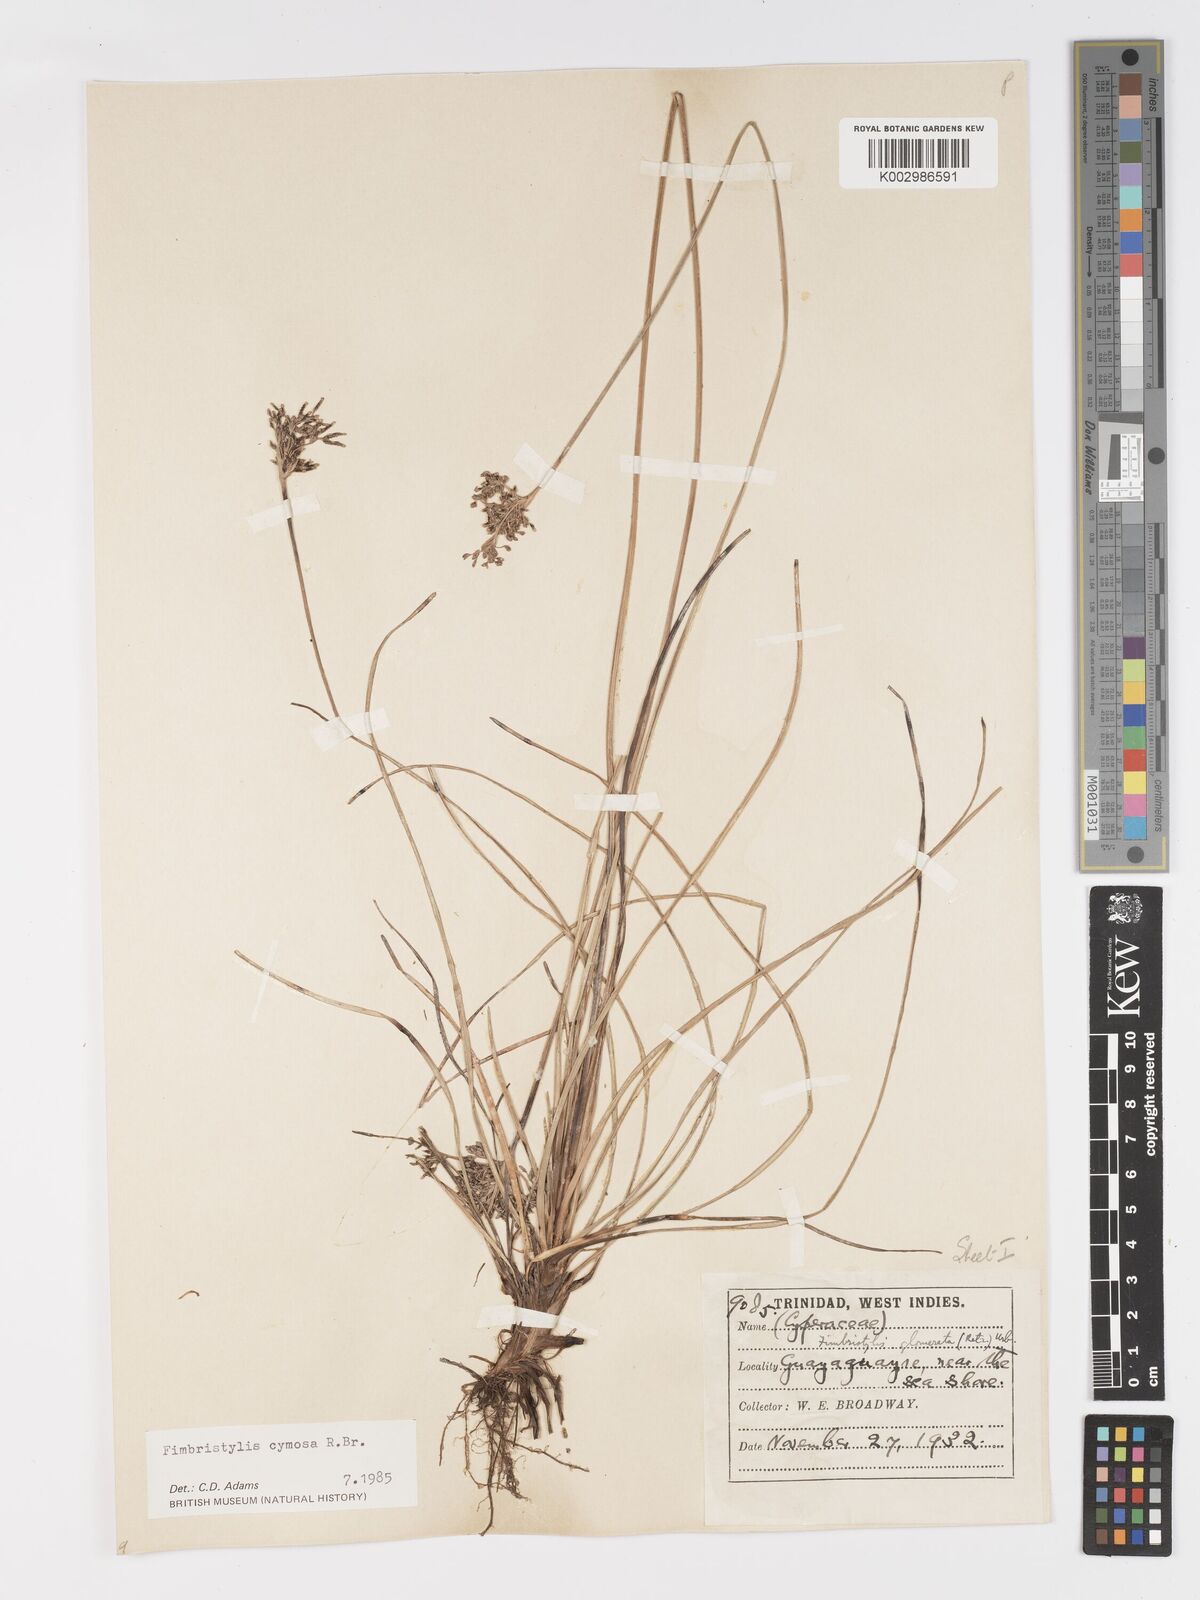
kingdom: Plantae
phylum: Tracheophyta
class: Liliopsida
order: Poales
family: Cyperaceae
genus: Fimbristylis
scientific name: Fimbristylis cymosa
